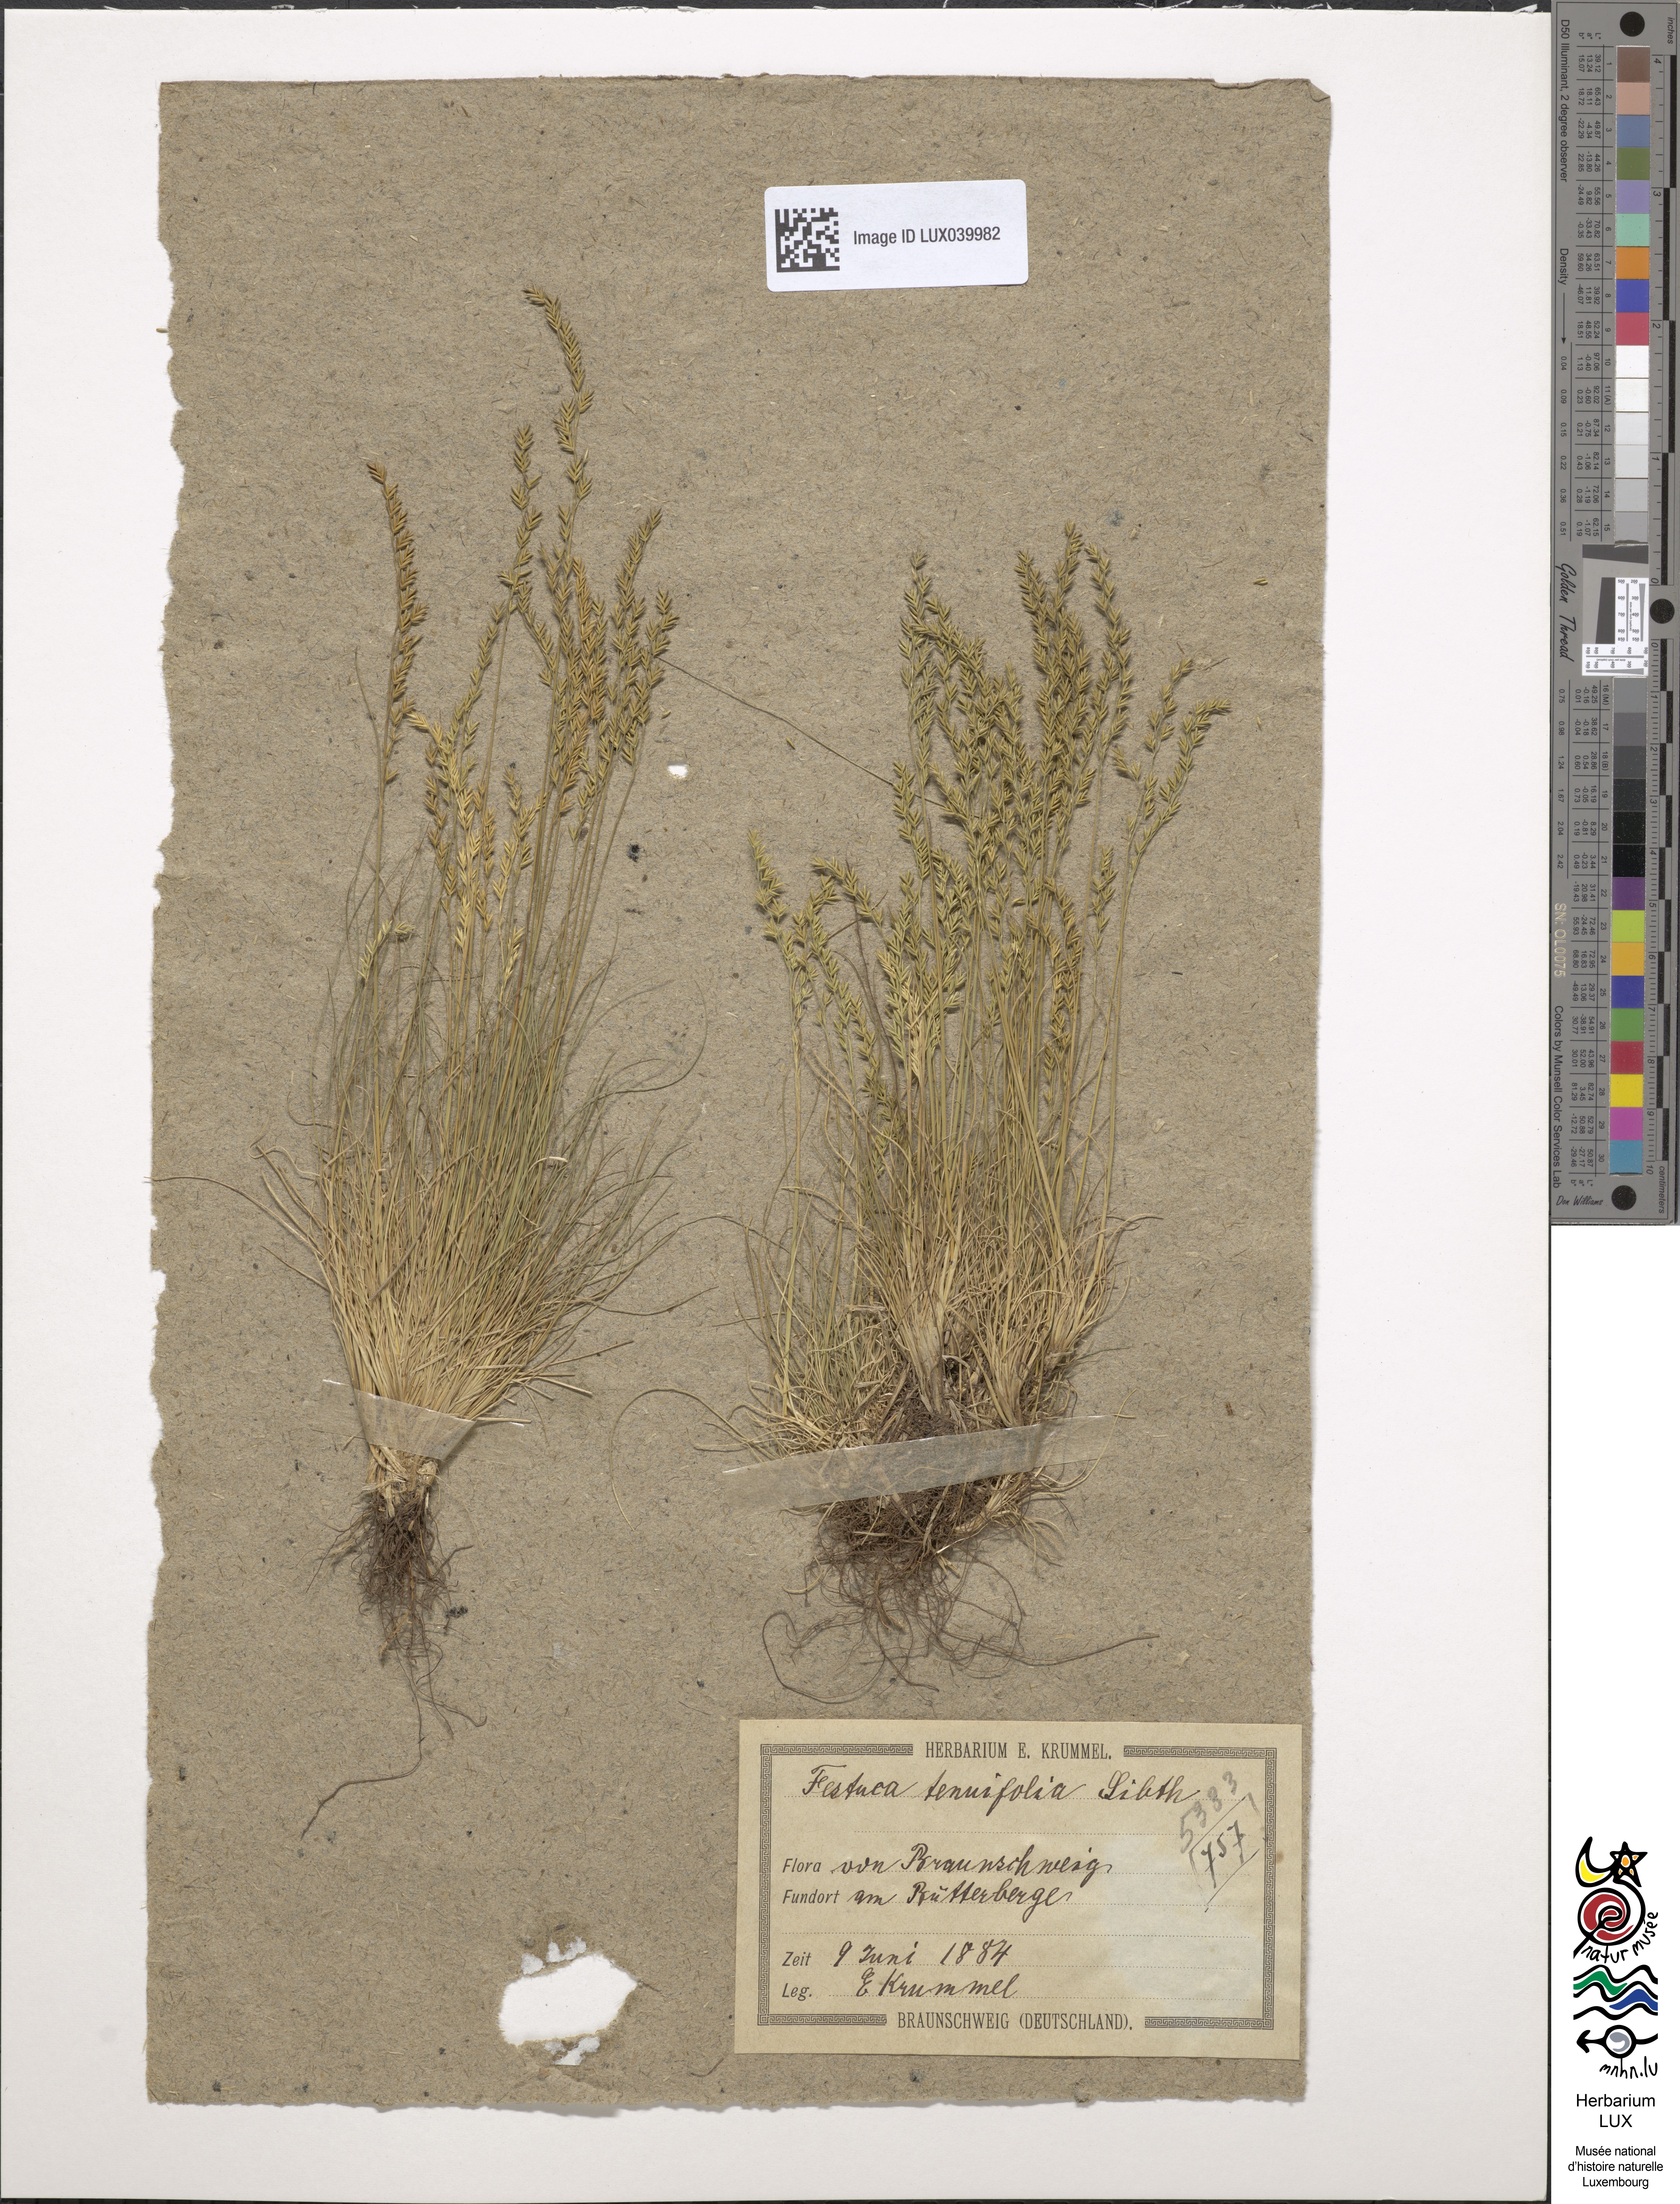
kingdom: Plantae
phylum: Tracheophyta
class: Liliopsida
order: Poales
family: Poaceae
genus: Festuca
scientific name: Festuca filiformis
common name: Fine-leaved sheep's-fescue
